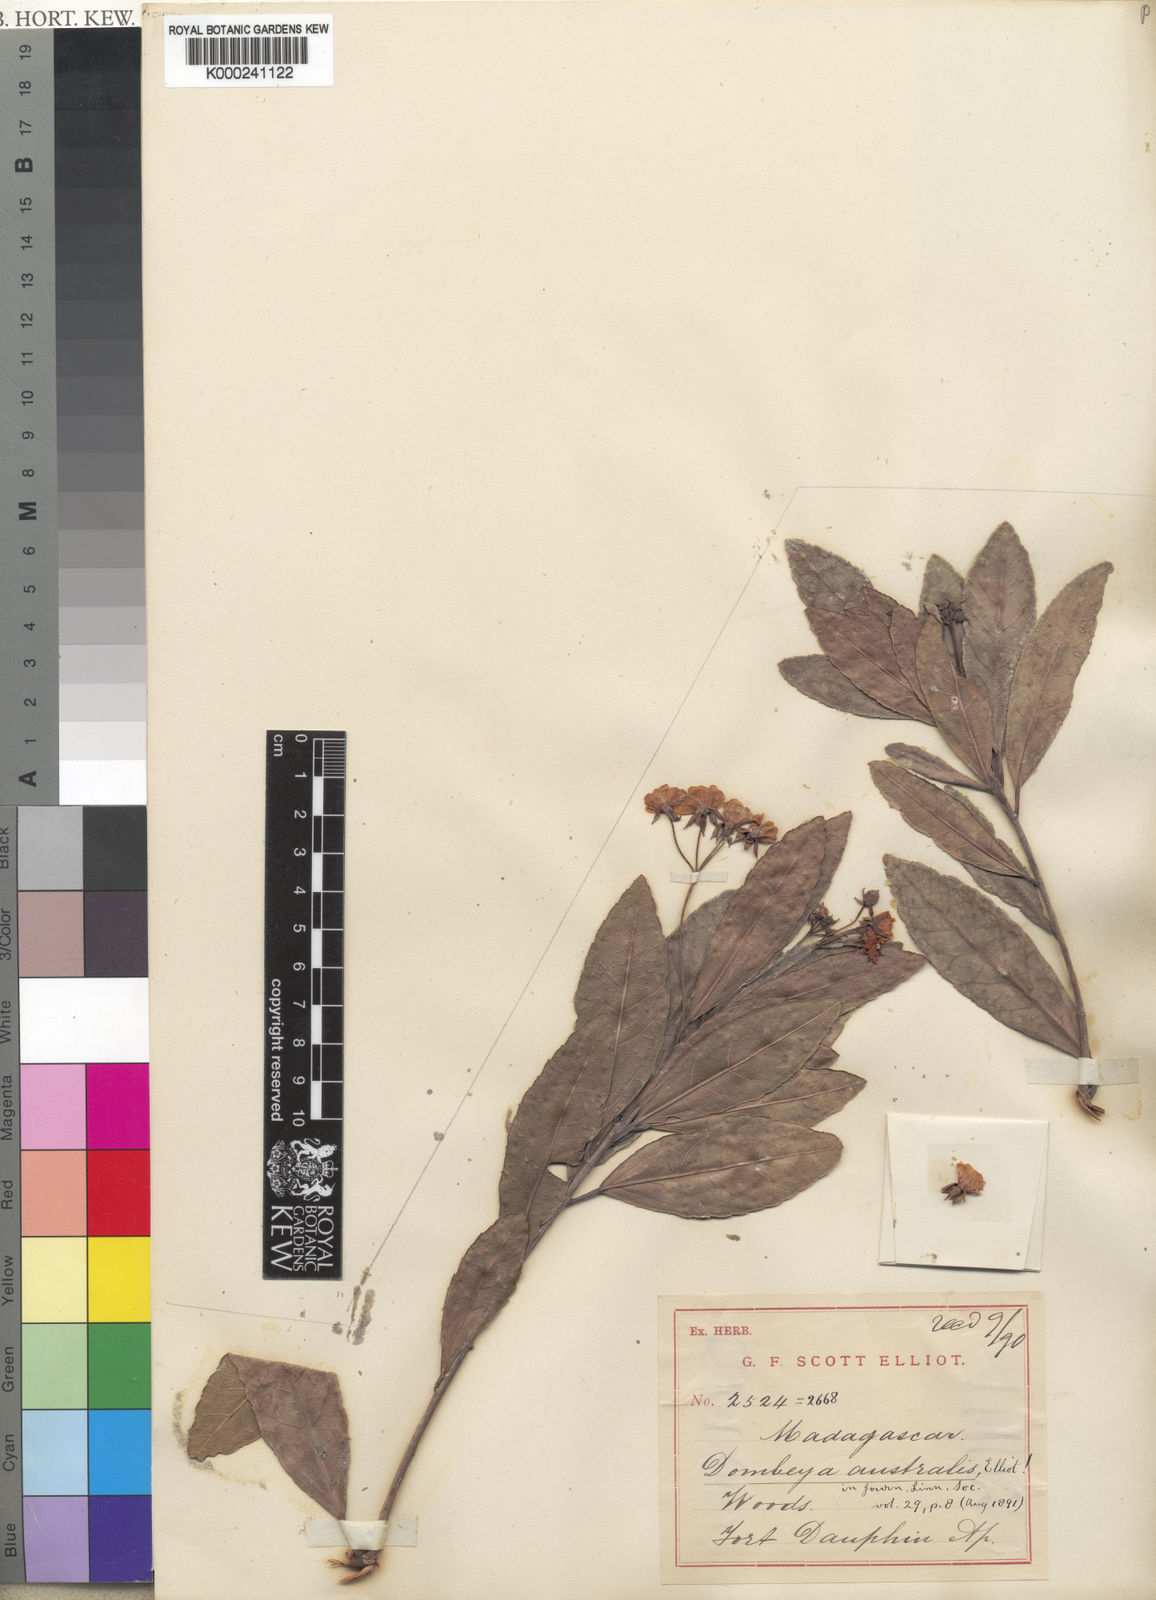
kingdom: Plantae
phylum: Tracheophyta
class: Magnoliopsida
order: Malvales
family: Malvaceae
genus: Dombeya
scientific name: Dombeya australis
